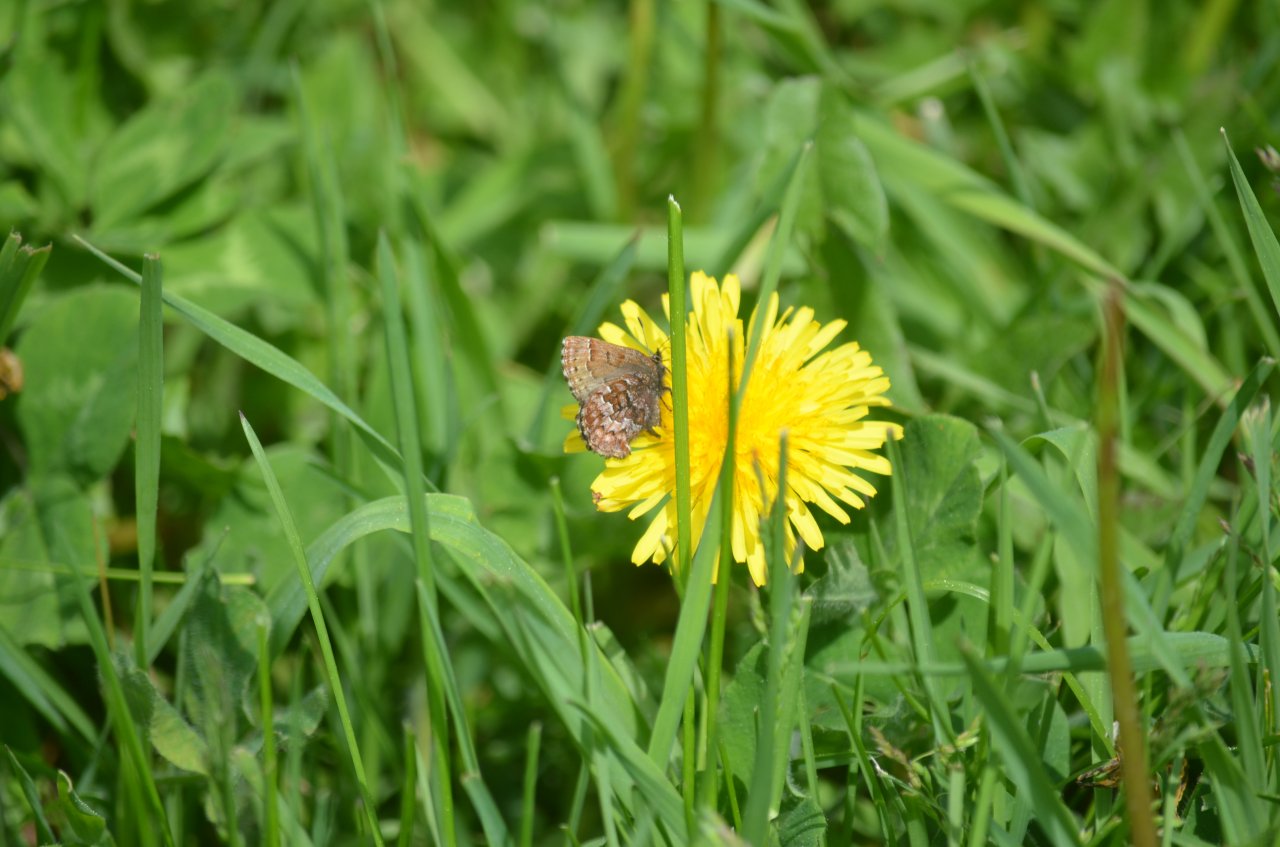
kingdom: Animalia
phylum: Arthropoda
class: Insecta
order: Lepidoptera
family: Lycaenidae
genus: Incisalia
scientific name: Incisalia niphon
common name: Eastern Pine Elfin
